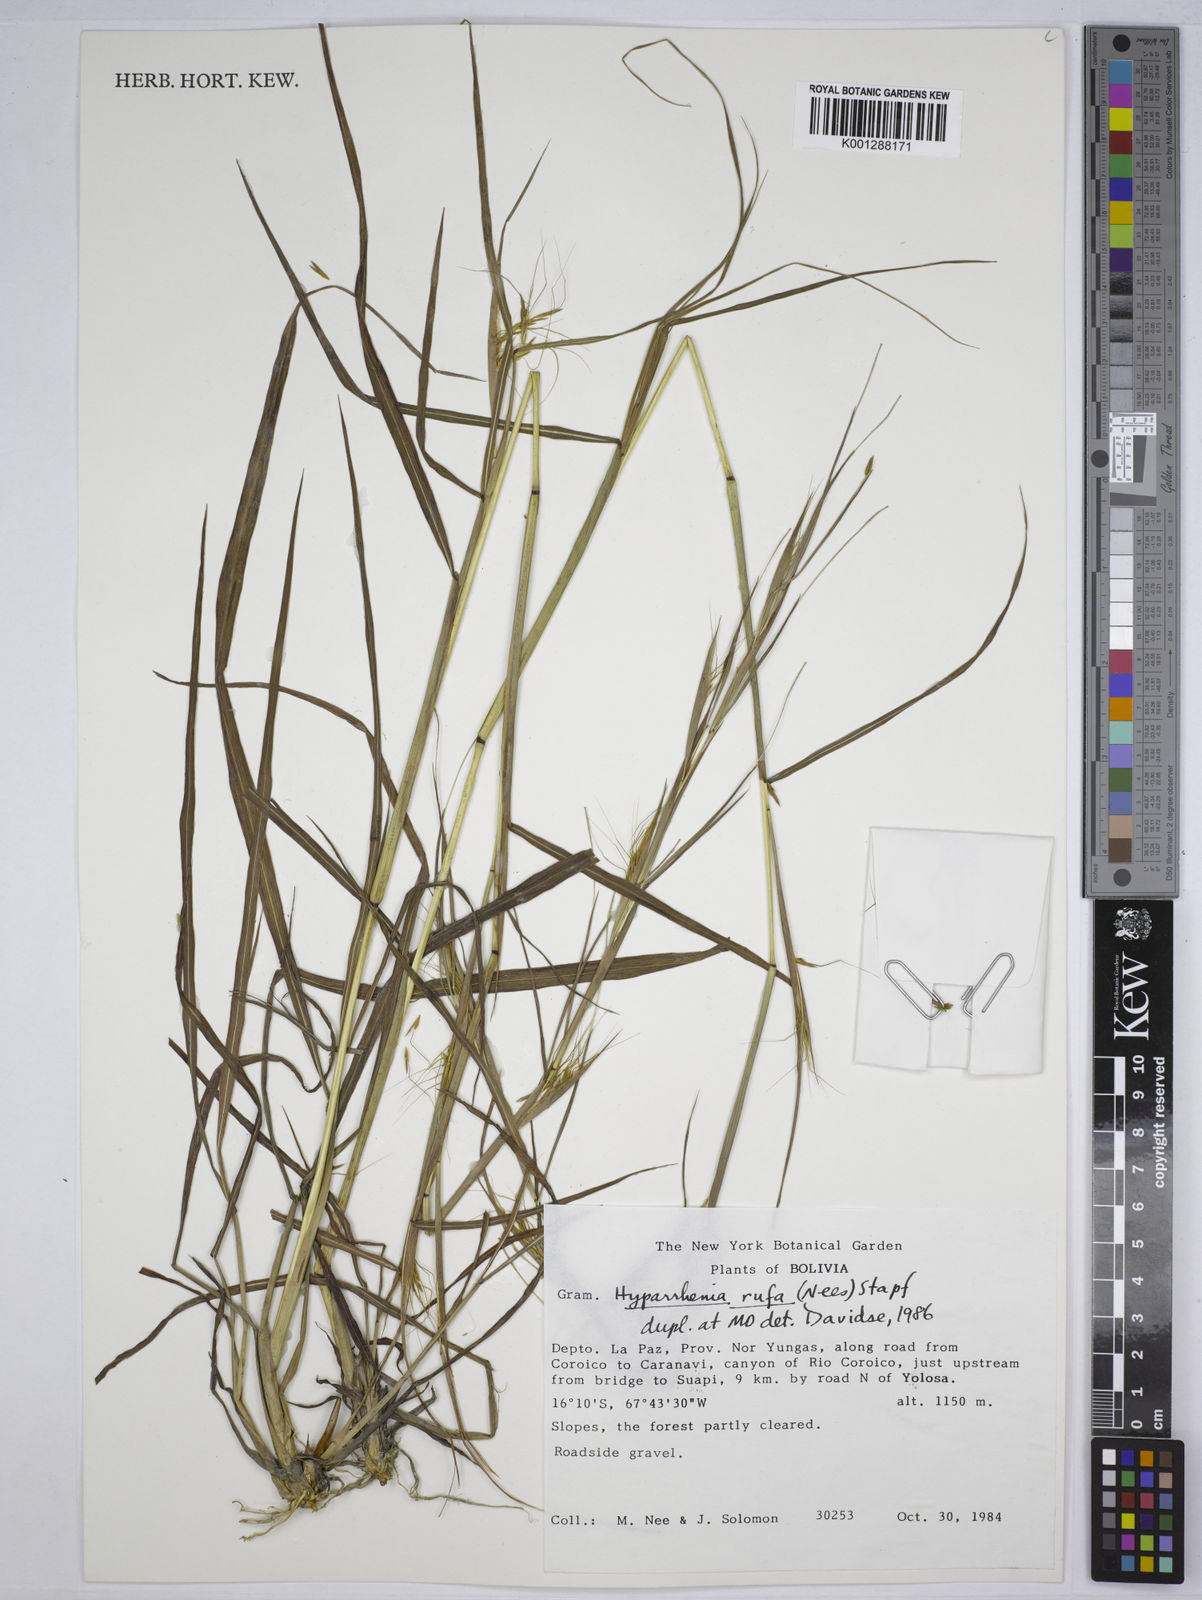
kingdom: Plantae
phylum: Tracheophyta
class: Liliopsida
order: Poales
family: Poaceae
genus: Hyparrhenia
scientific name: Hyparrhenia rufa
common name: Jaraguagrass
